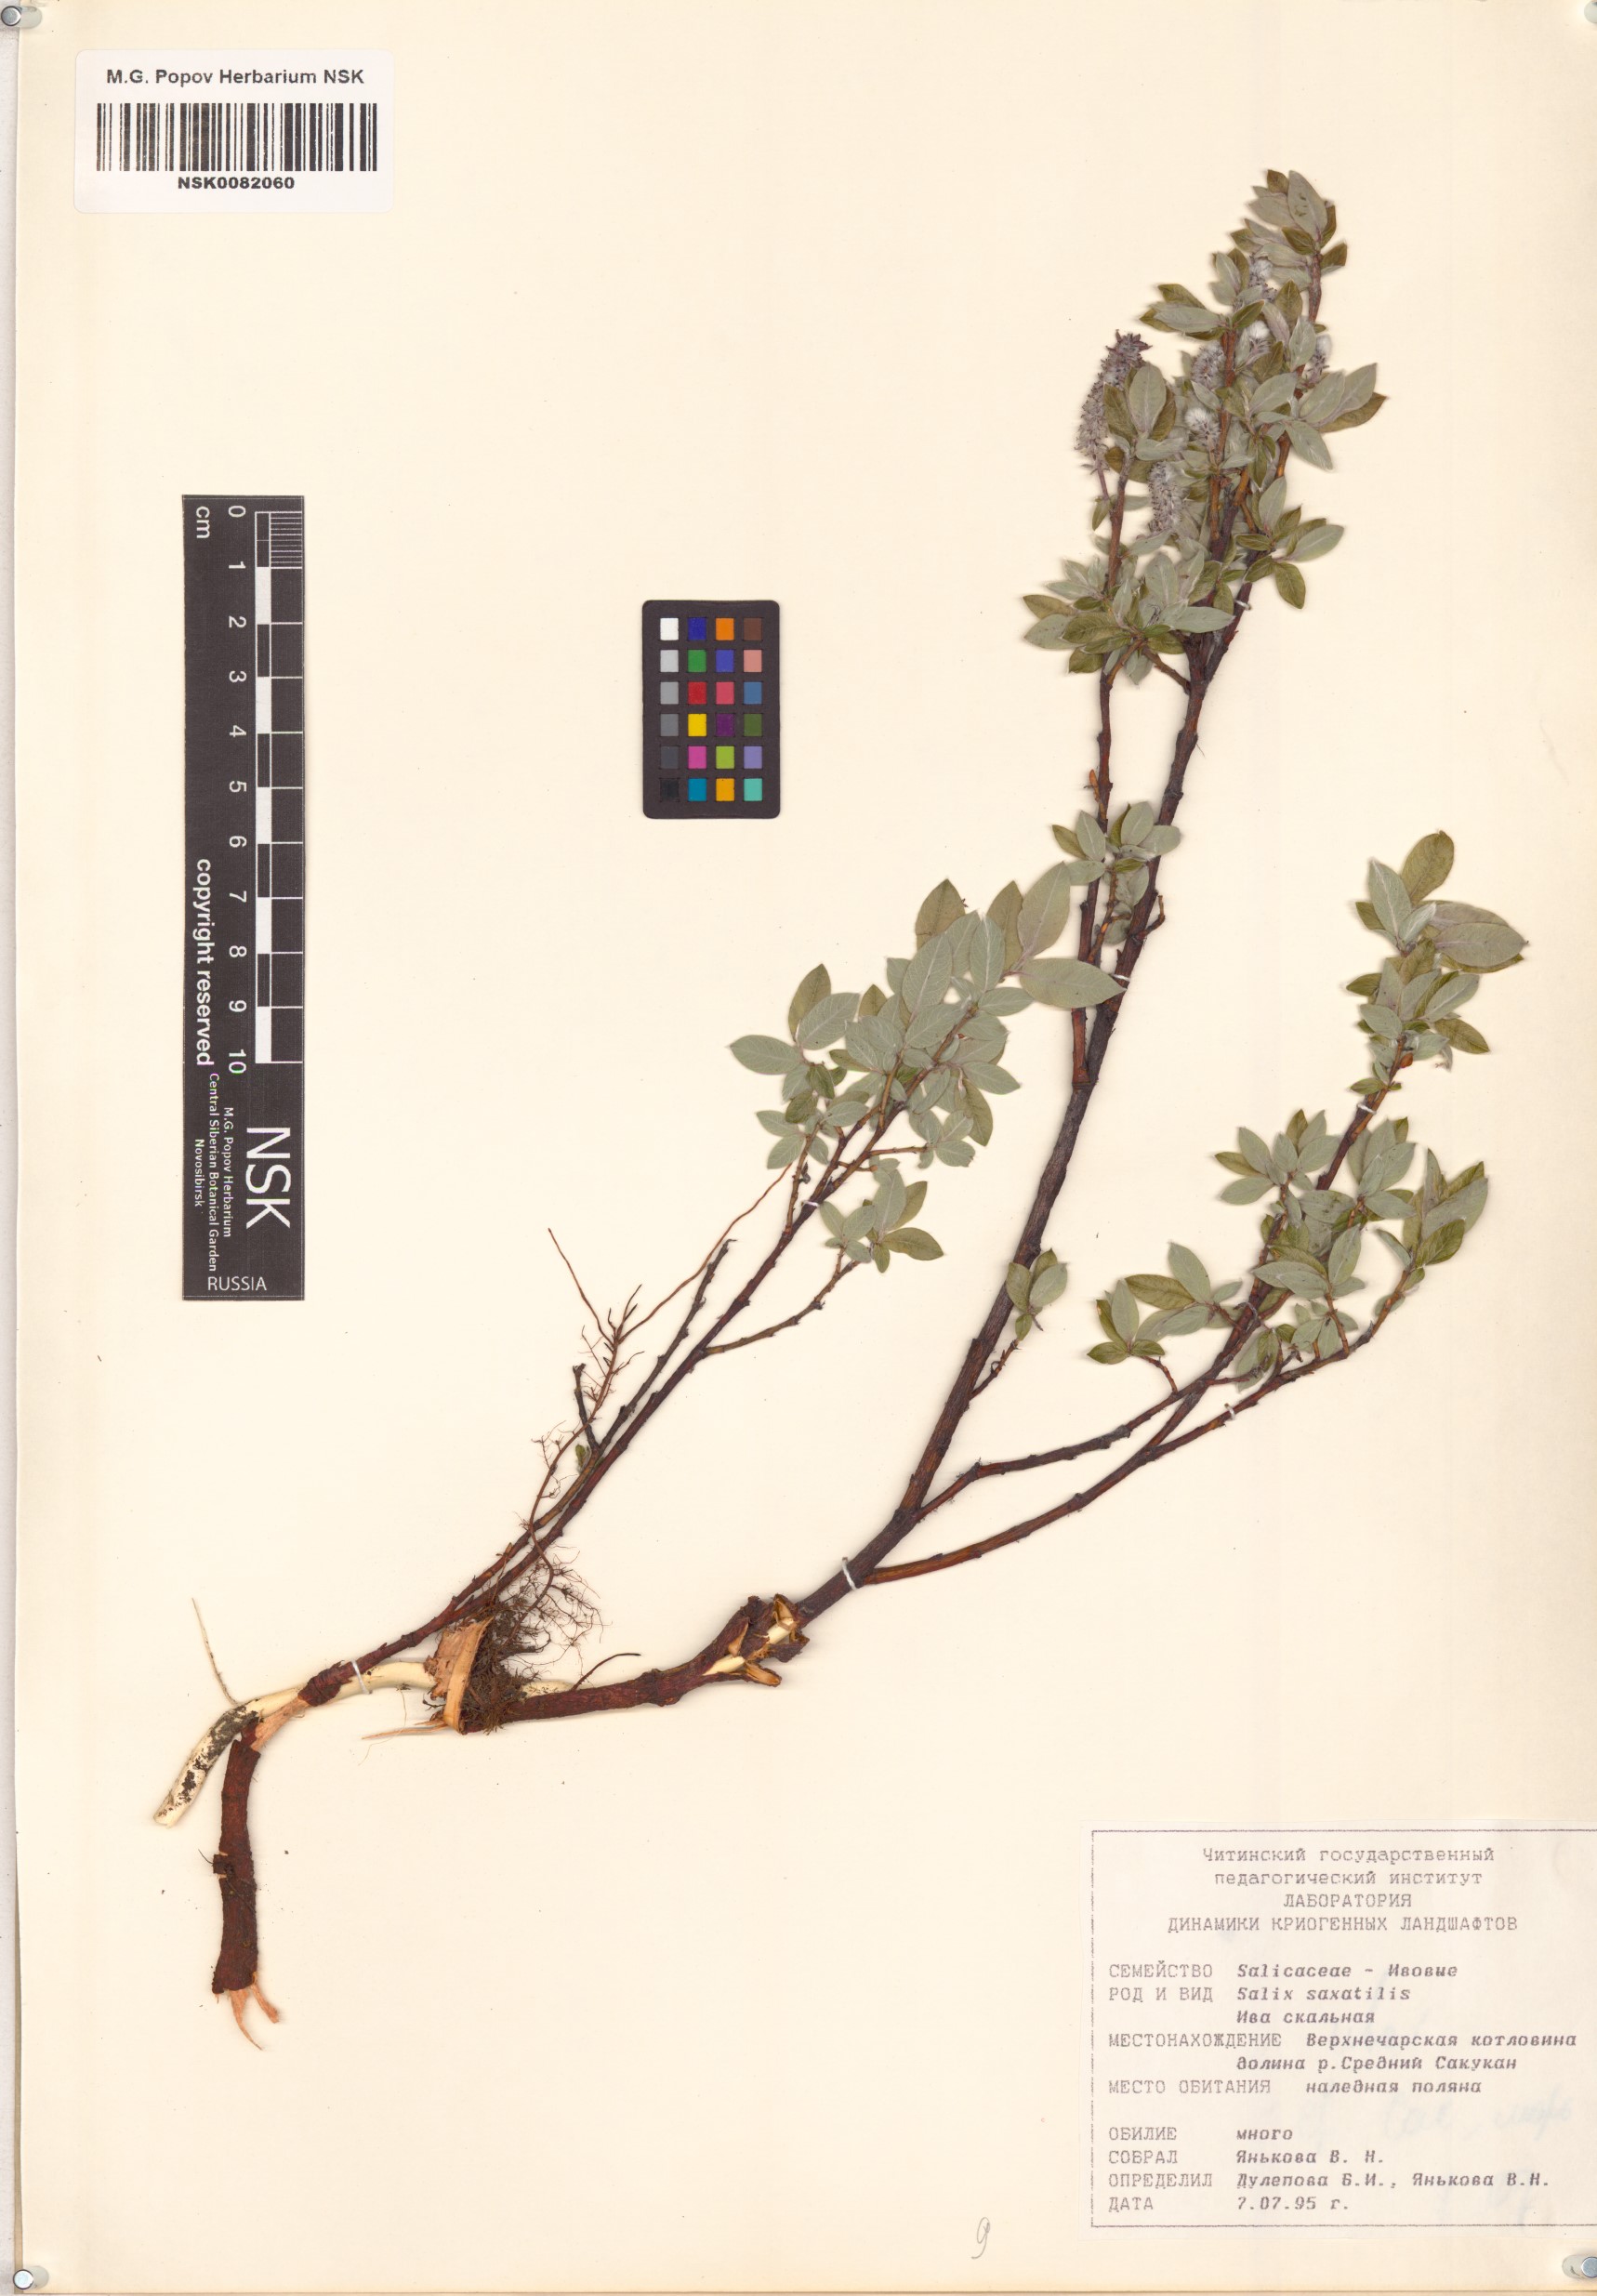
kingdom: Plantae
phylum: Tracheophyta
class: Magnoliopsida
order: Malpighiales
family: Salicaceae
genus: Salix
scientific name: Salix saxatilis
